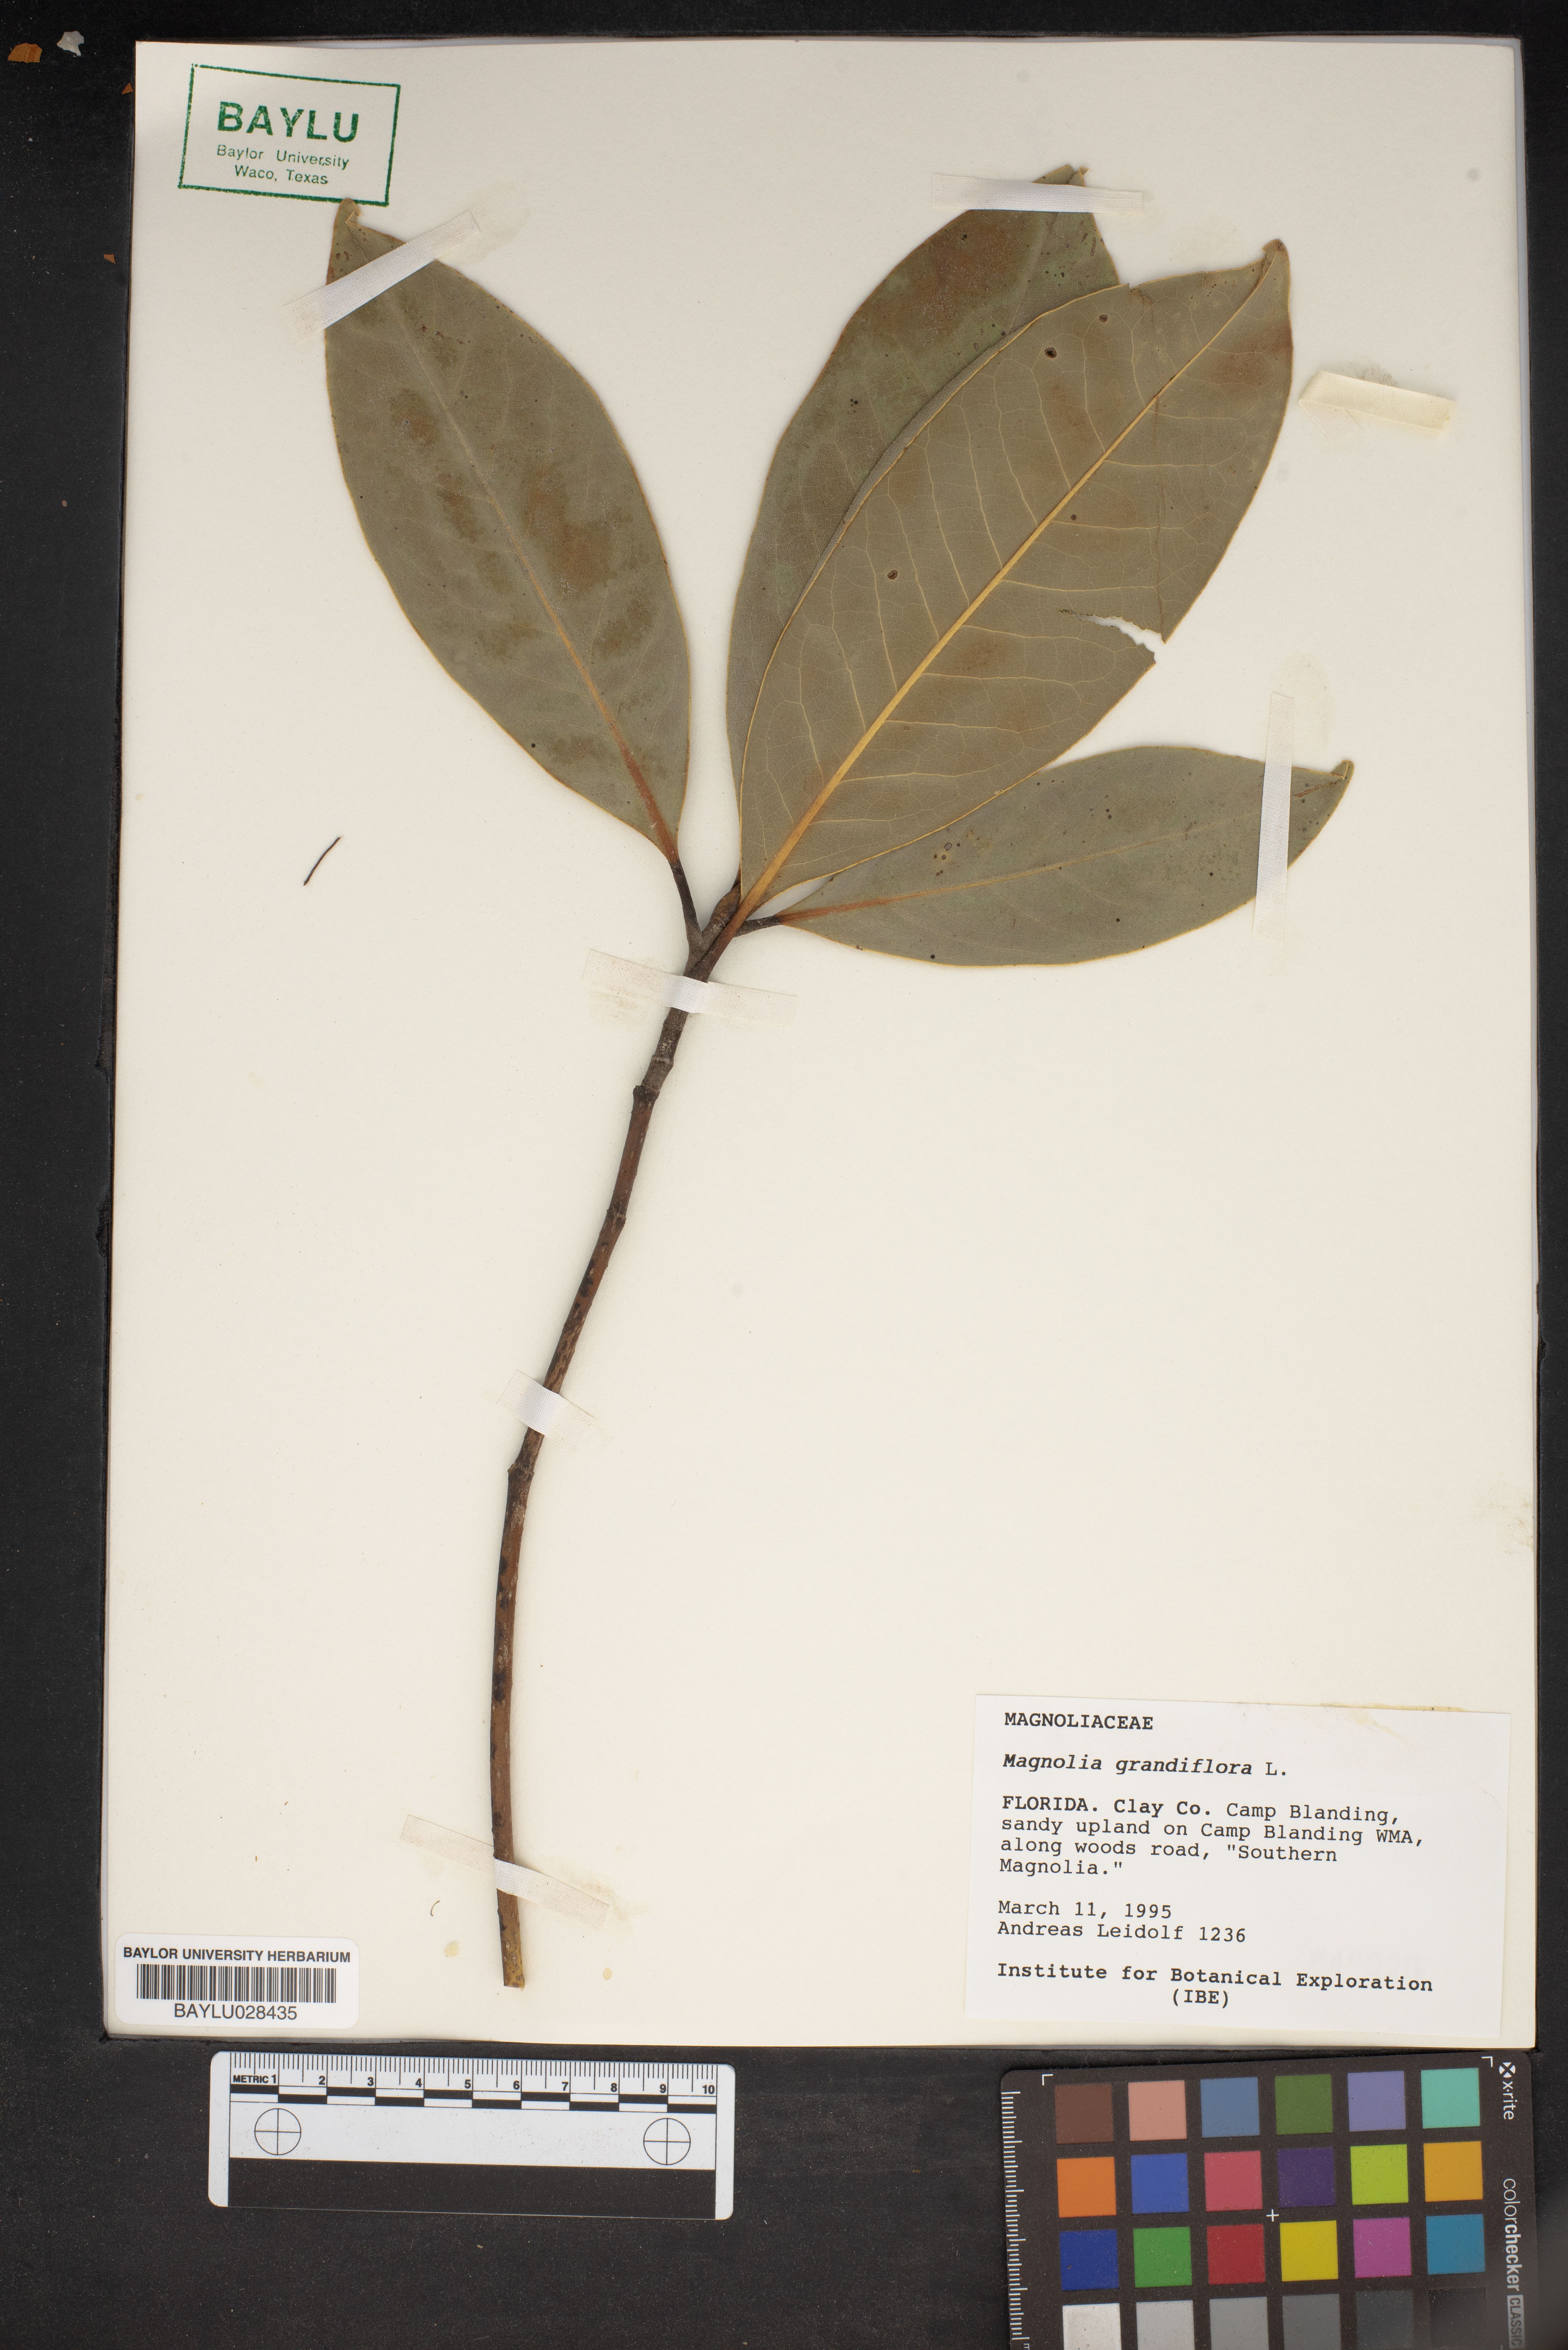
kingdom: Plantae
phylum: Tracheophyta
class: Magnoliopsida
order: Magnoliales
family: Magnoliaceae
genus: Magnolia
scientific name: Magnolia grandiflora
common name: Southern magnolia
